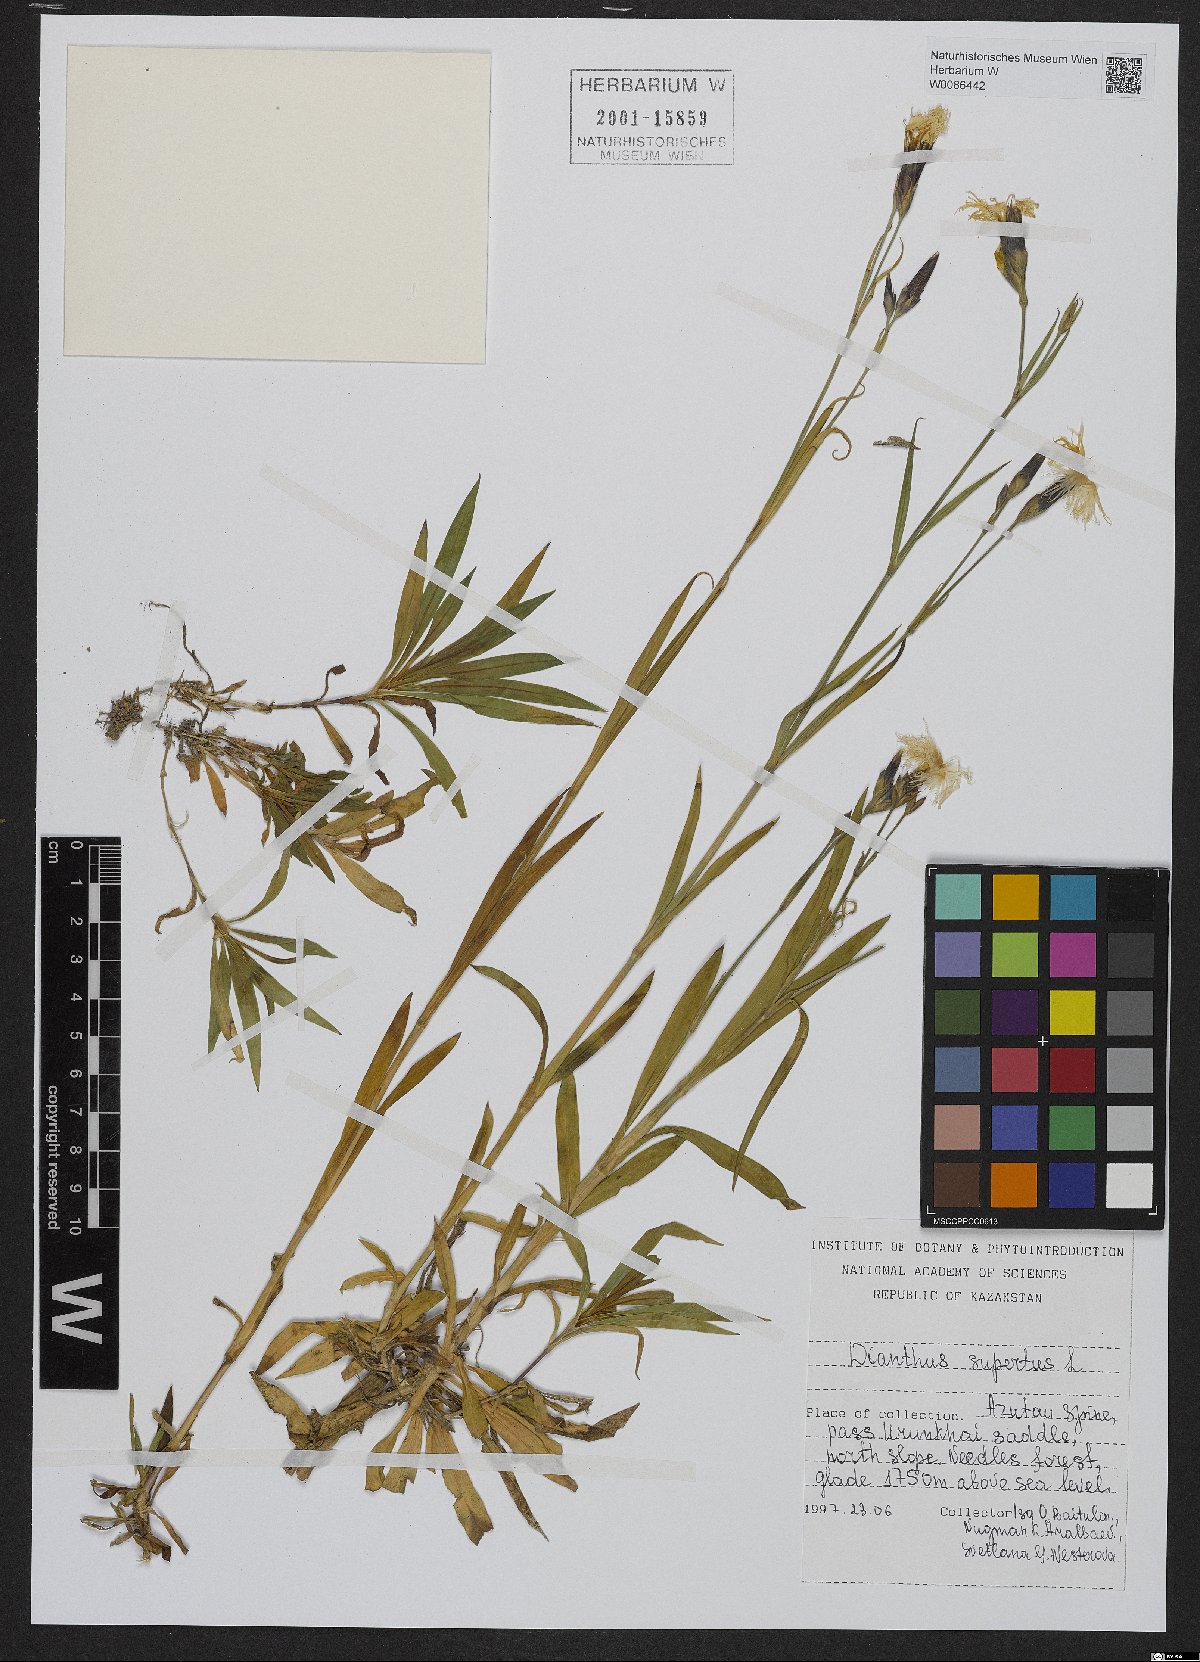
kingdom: Plantae
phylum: Tracheophyta
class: Magnoliopsida
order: Caryophyllales
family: Caryophyllaceae
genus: Dianthus
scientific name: Dianthus superbus
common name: Fringed pink
